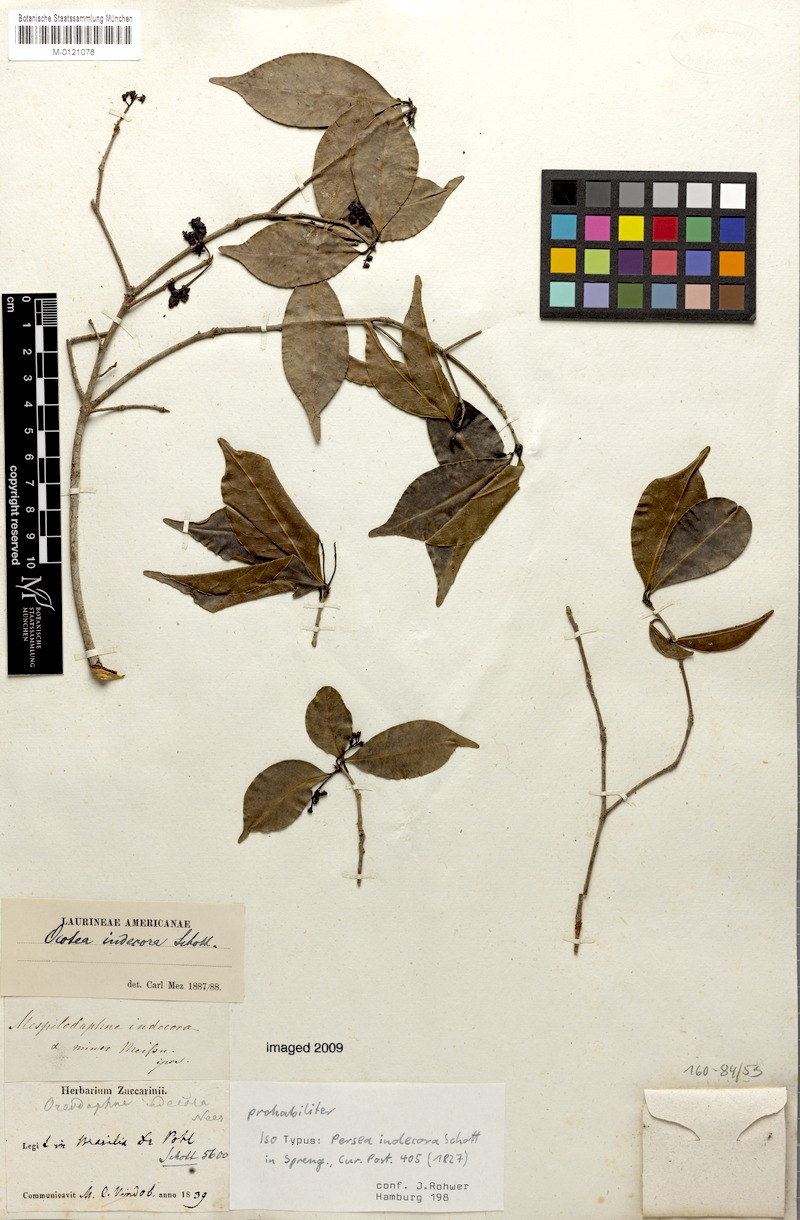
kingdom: Plantae
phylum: Tracheophyta
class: Magnoliopsida
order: Laurales
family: Lauraceae
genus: Mespilodaphne
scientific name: Mespilodaphne indecora
